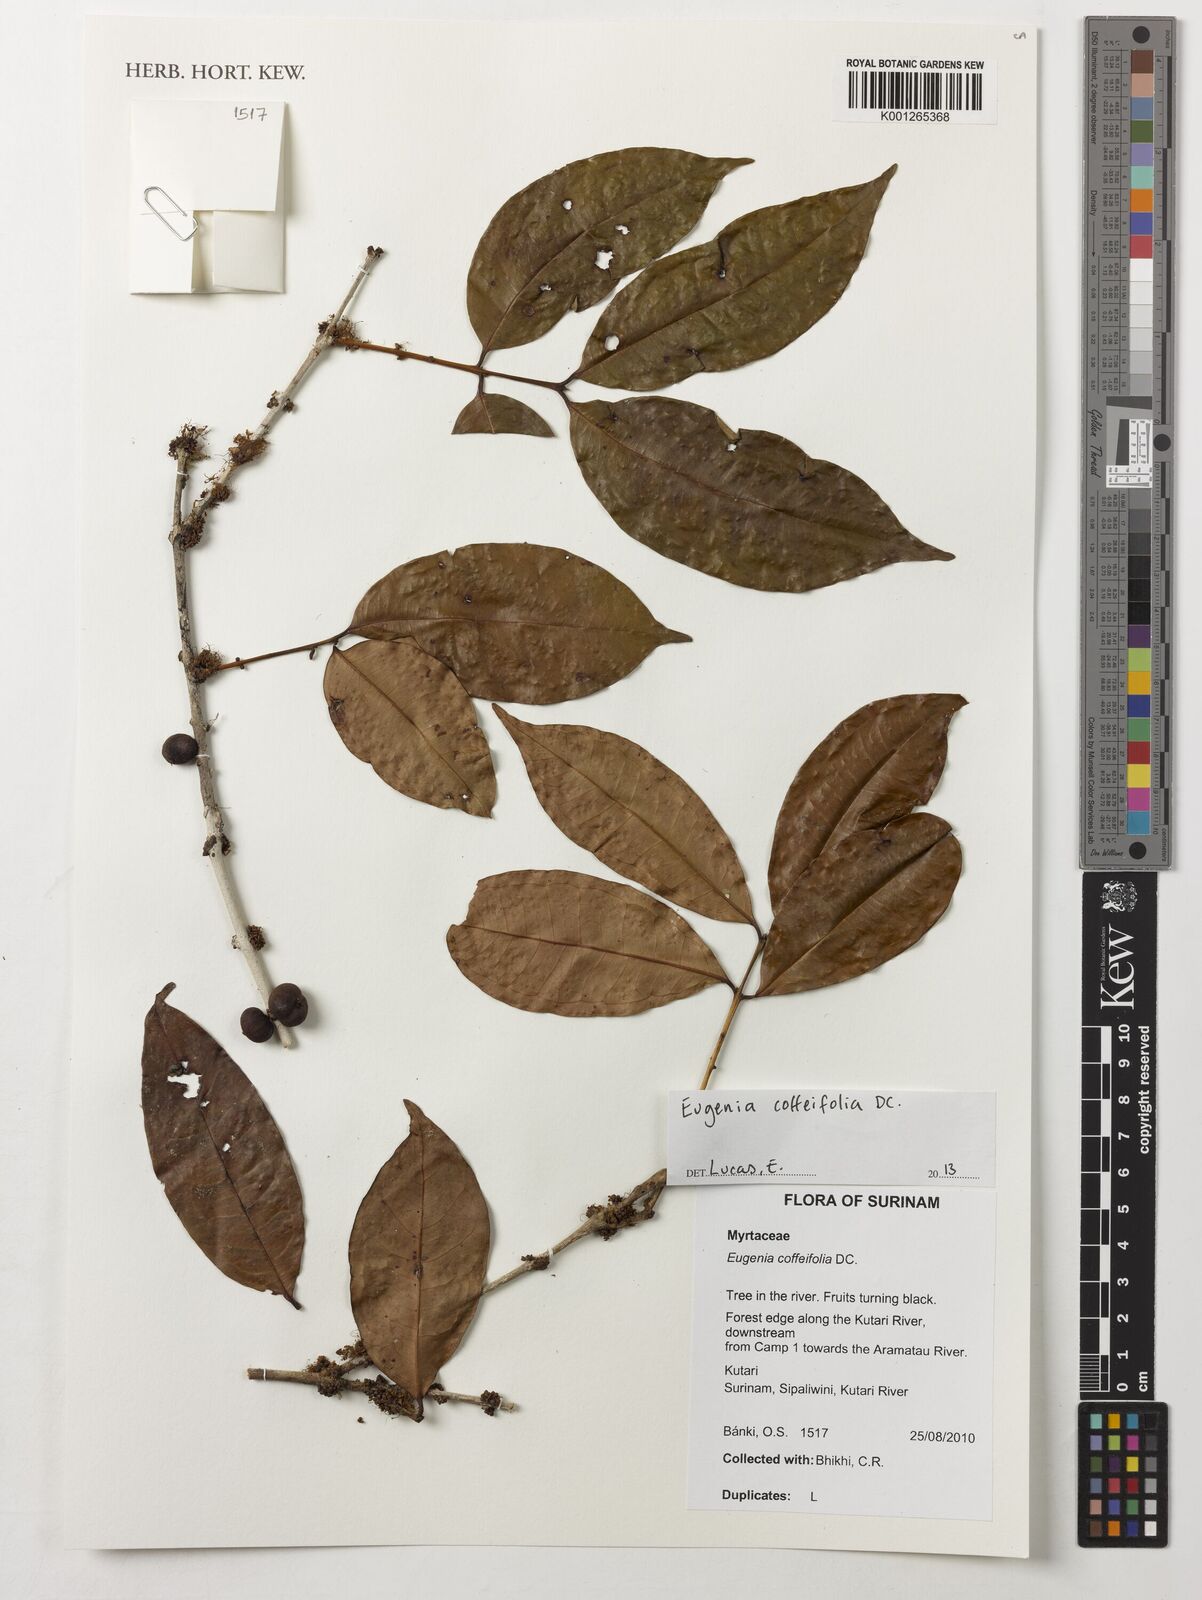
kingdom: Plantae
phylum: Tracheophyta
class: Magnoliopsida
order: Myrtales
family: Myrtaceae
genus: Eugenia
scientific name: Eugenia coffeifolia
